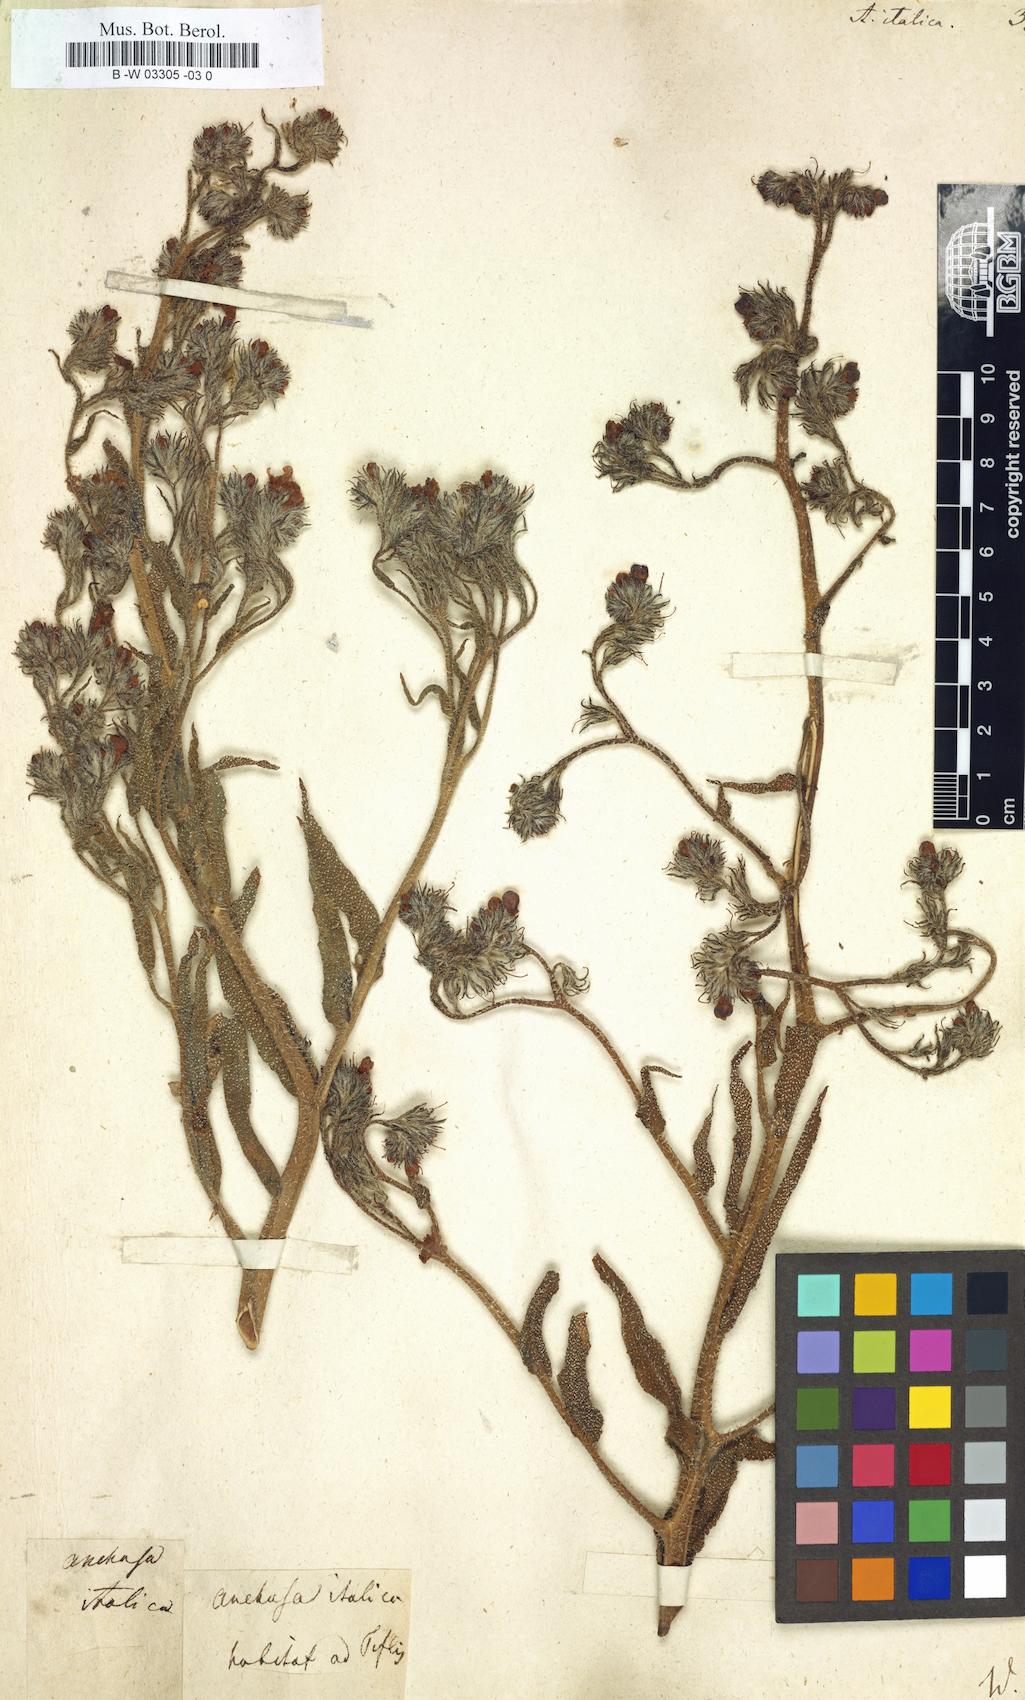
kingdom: Plantae
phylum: Tracheophyta
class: Magnoliopsida
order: Boraginales
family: Boraginaceae
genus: Anchusa
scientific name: Anchusa azurea
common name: Garden anchusa
